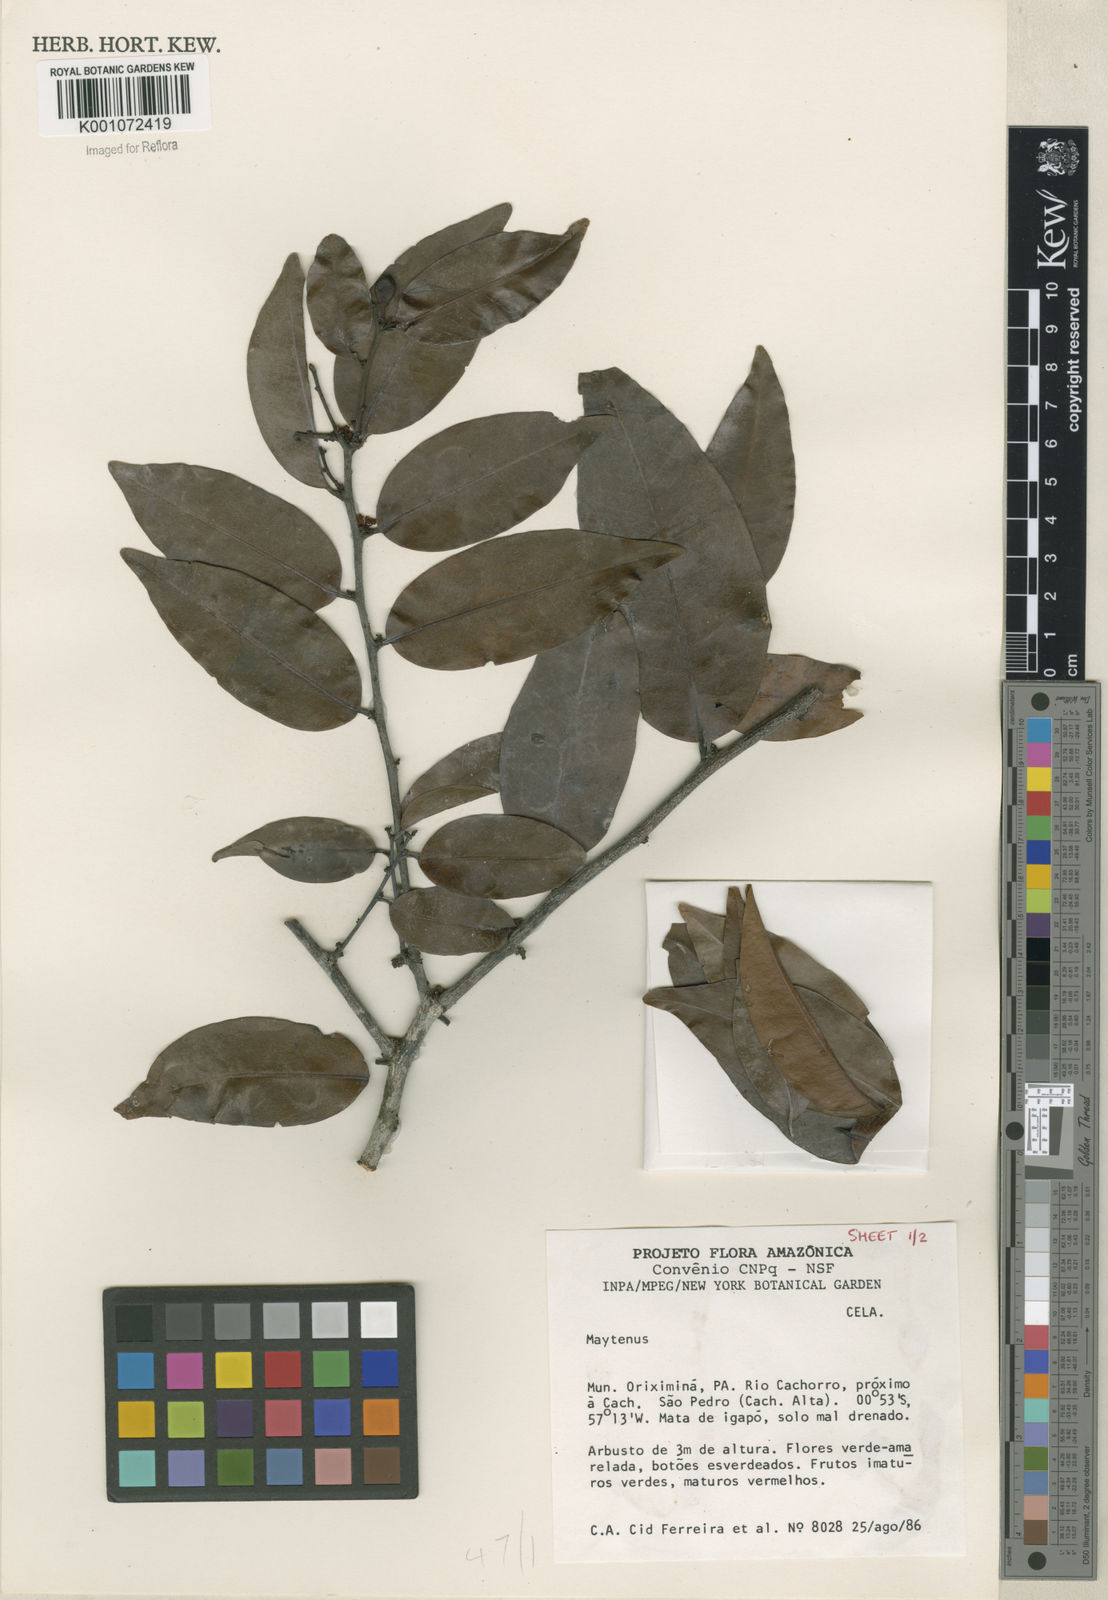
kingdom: Plantae
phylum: Tracheophyta
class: Magnoliopsida
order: Celastrales
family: Celastraceae
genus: Maytenus
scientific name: Maytenus
